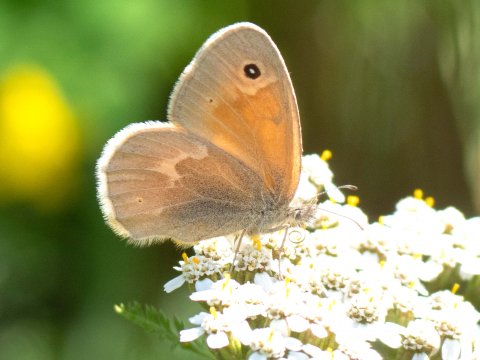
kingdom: Animalia
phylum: Arthropoda
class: Insecta
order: Lepidoptera
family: Nymphalidae
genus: Coenonympha
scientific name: Coenonympha tullia
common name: Large Heath
